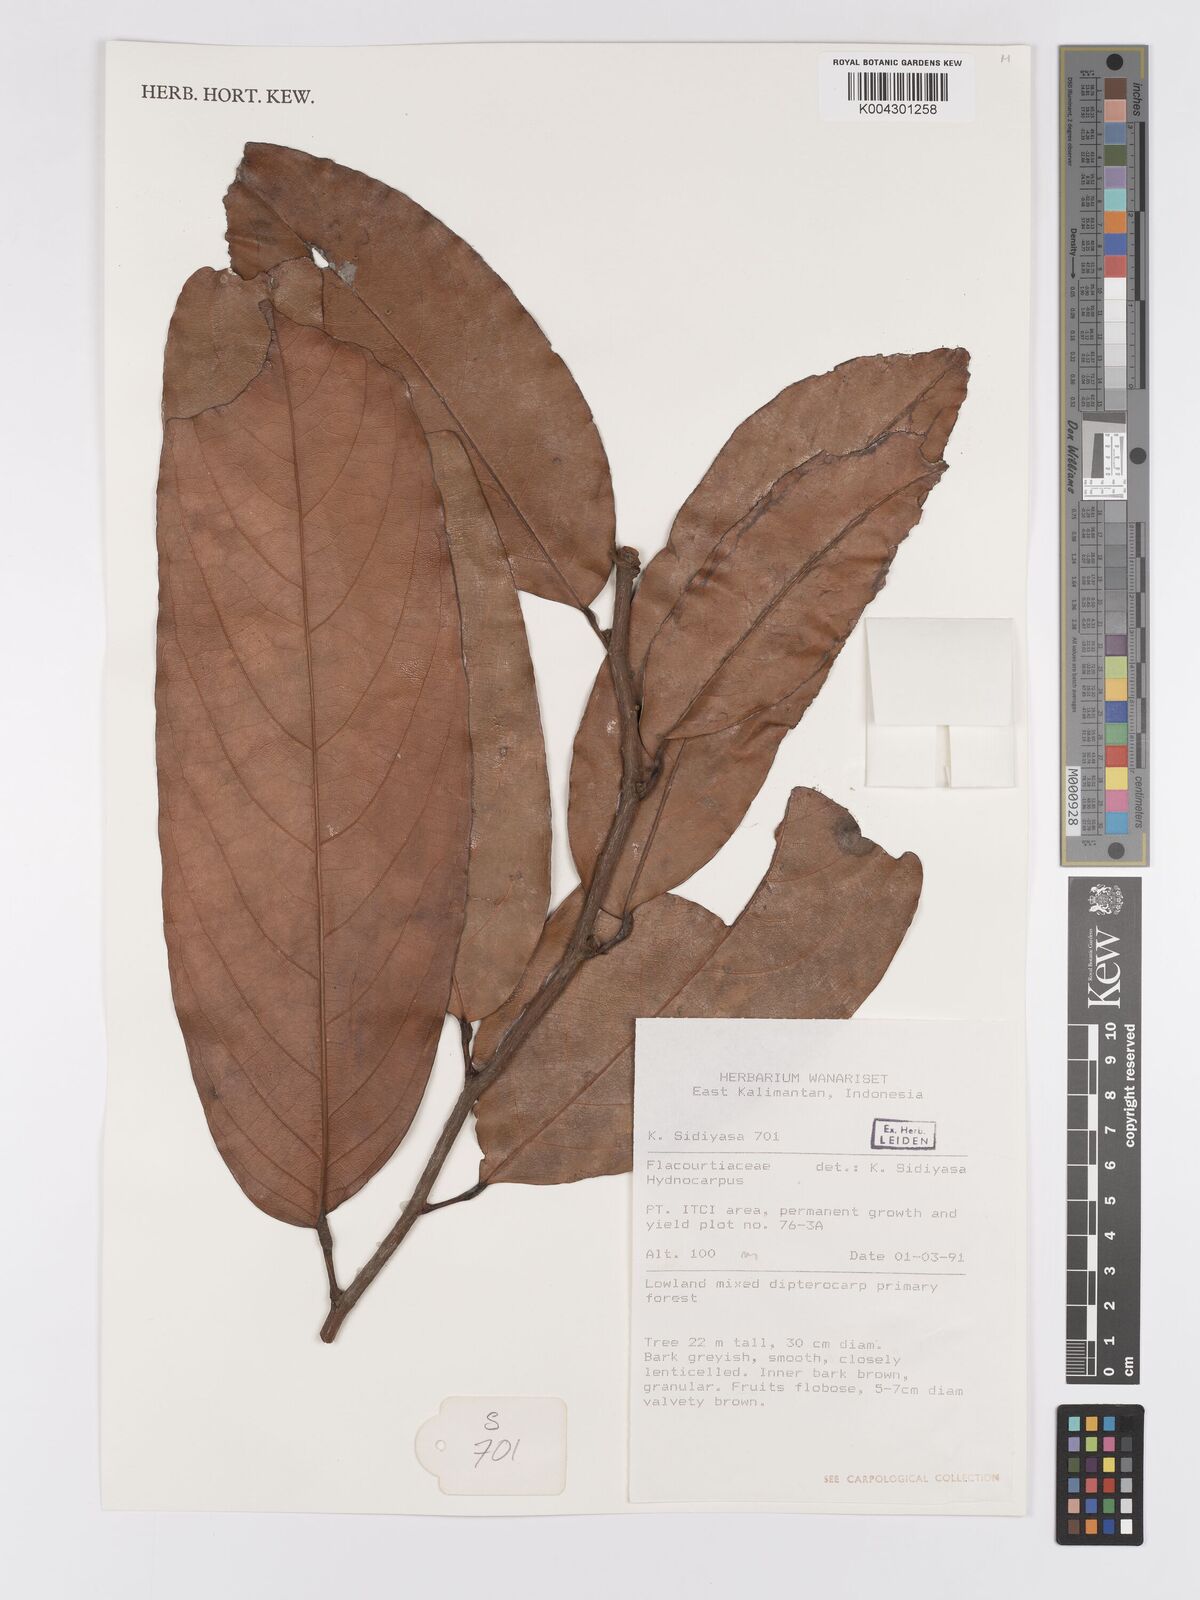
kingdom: Plantae
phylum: Tracheophyta
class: Magnoliopsida
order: Malpighiales
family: Achariaceae
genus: Hydnocarpus
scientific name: Hydnocarpus
